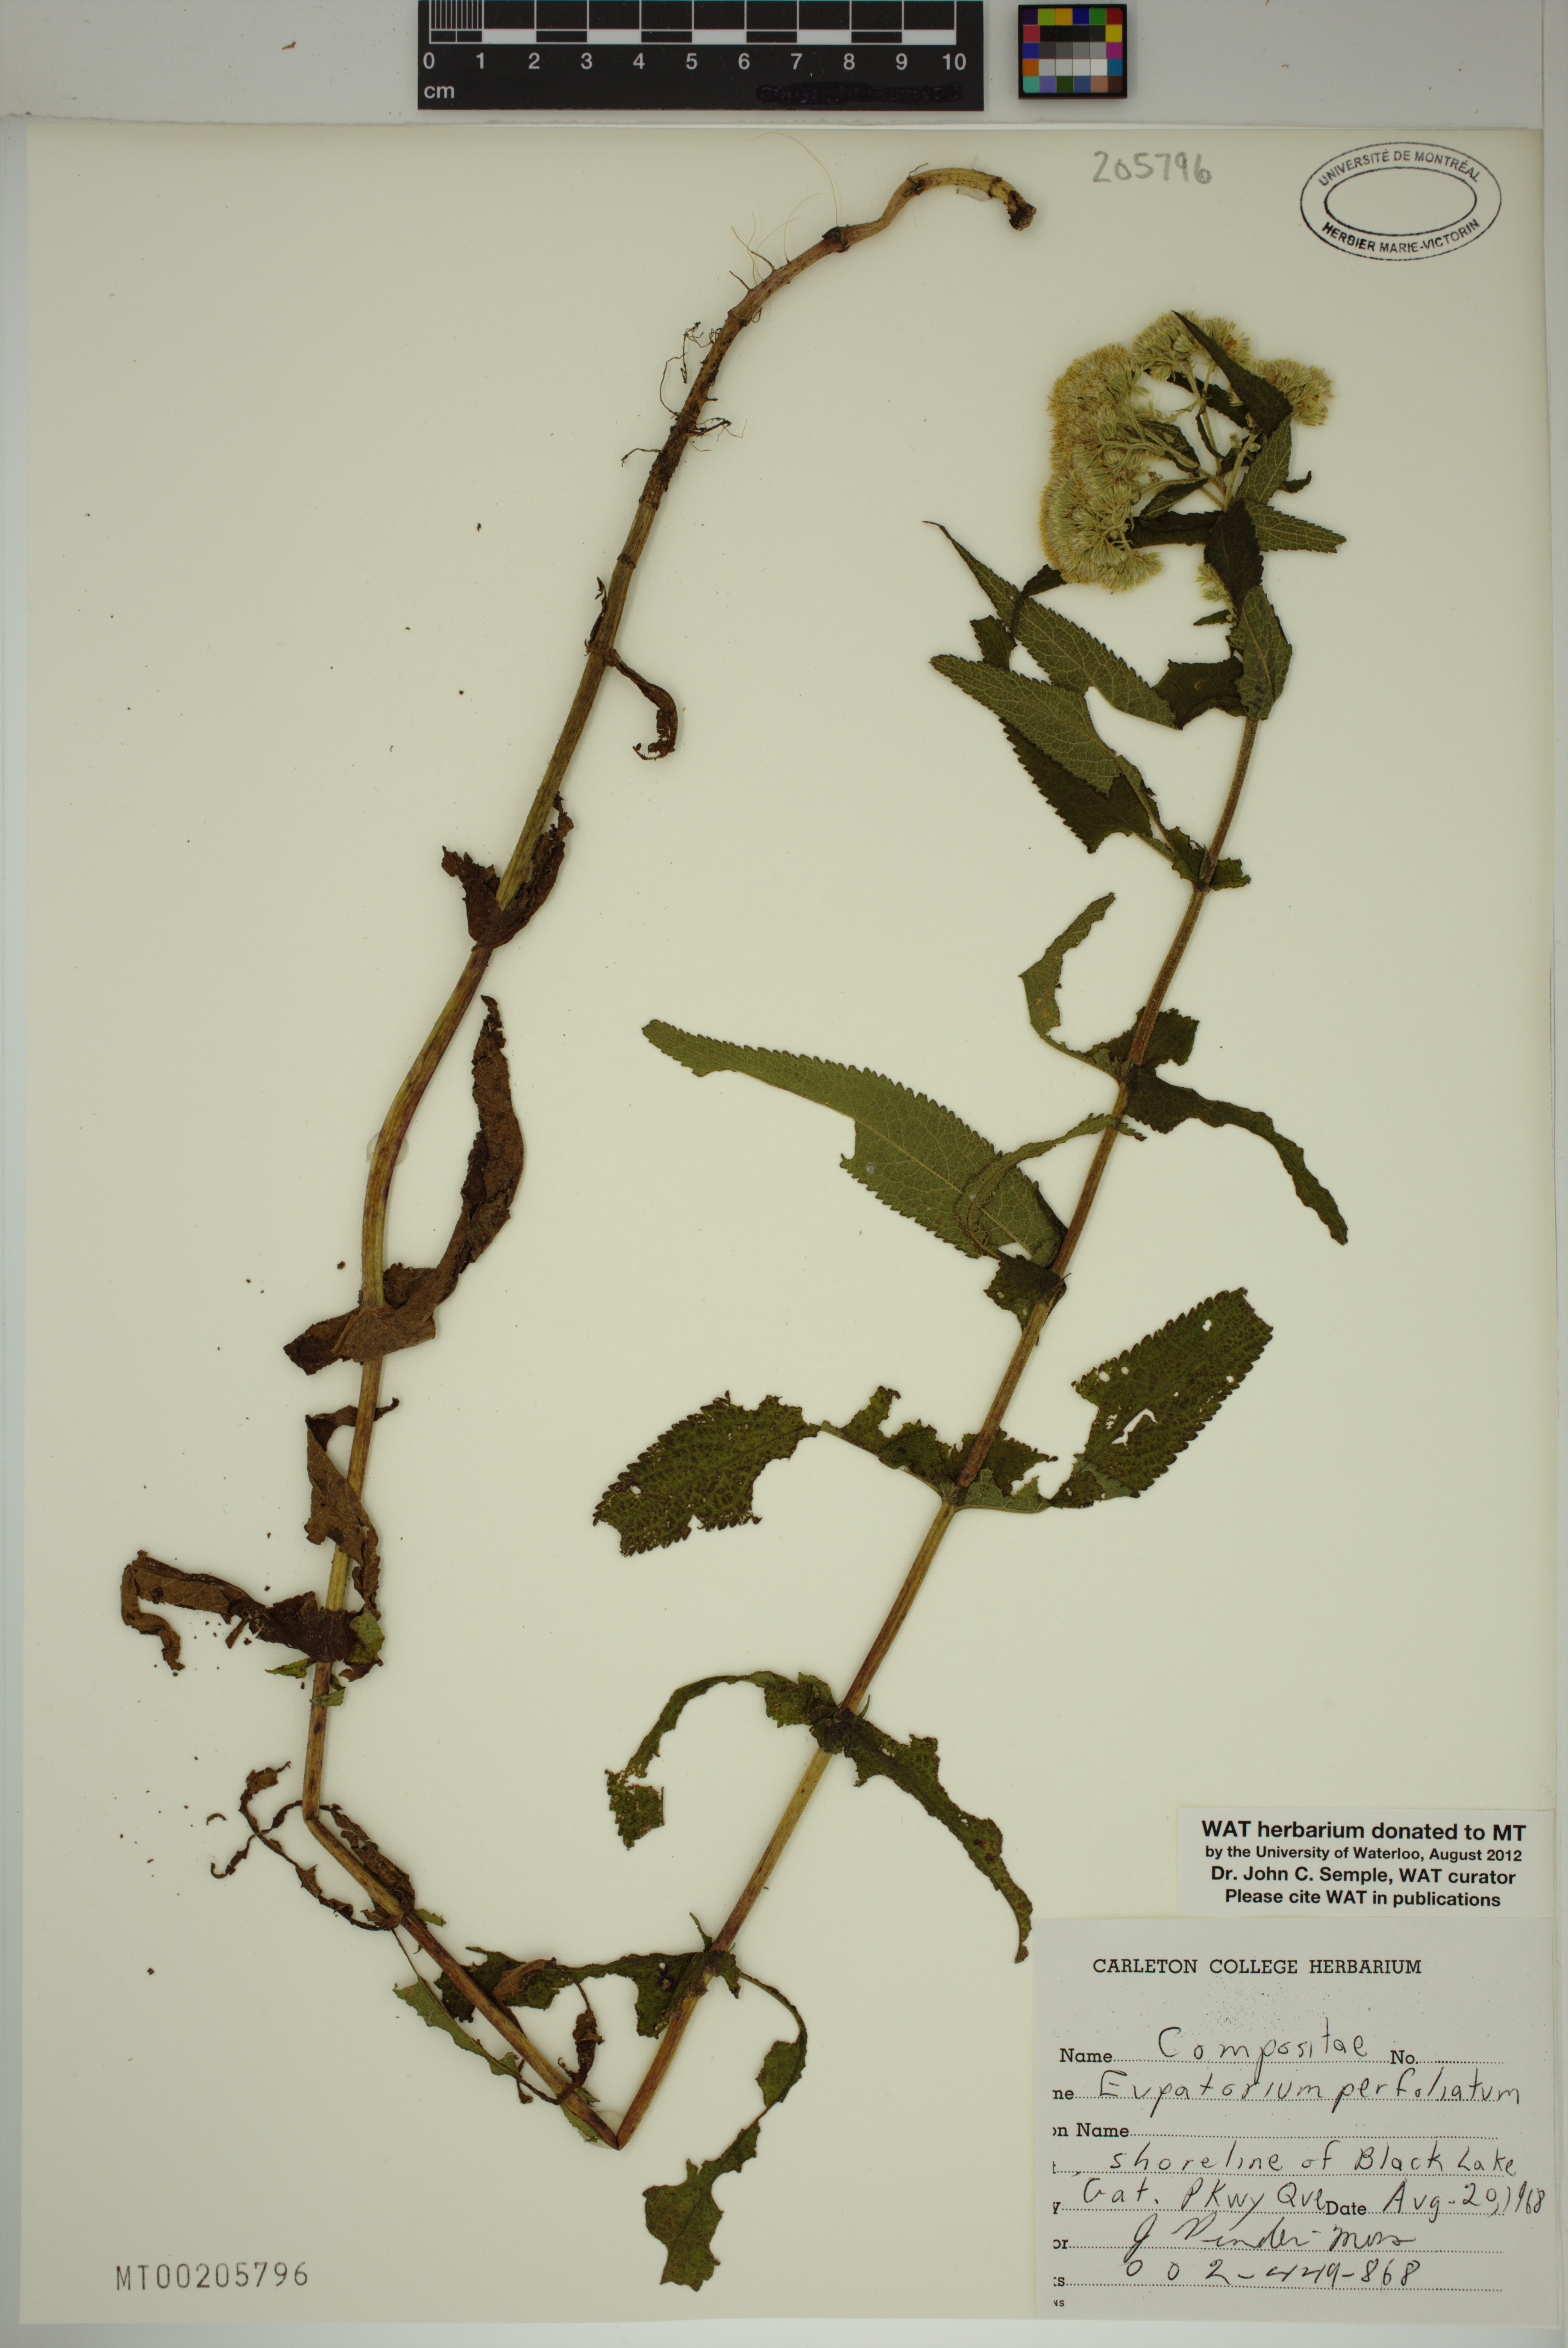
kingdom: Plantae
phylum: Tracheophyta
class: Magnoliopsida
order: Asterales
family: Asteraceae
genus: Eupatorium
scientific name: Eupatorium perfoliatum
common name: Boneset
